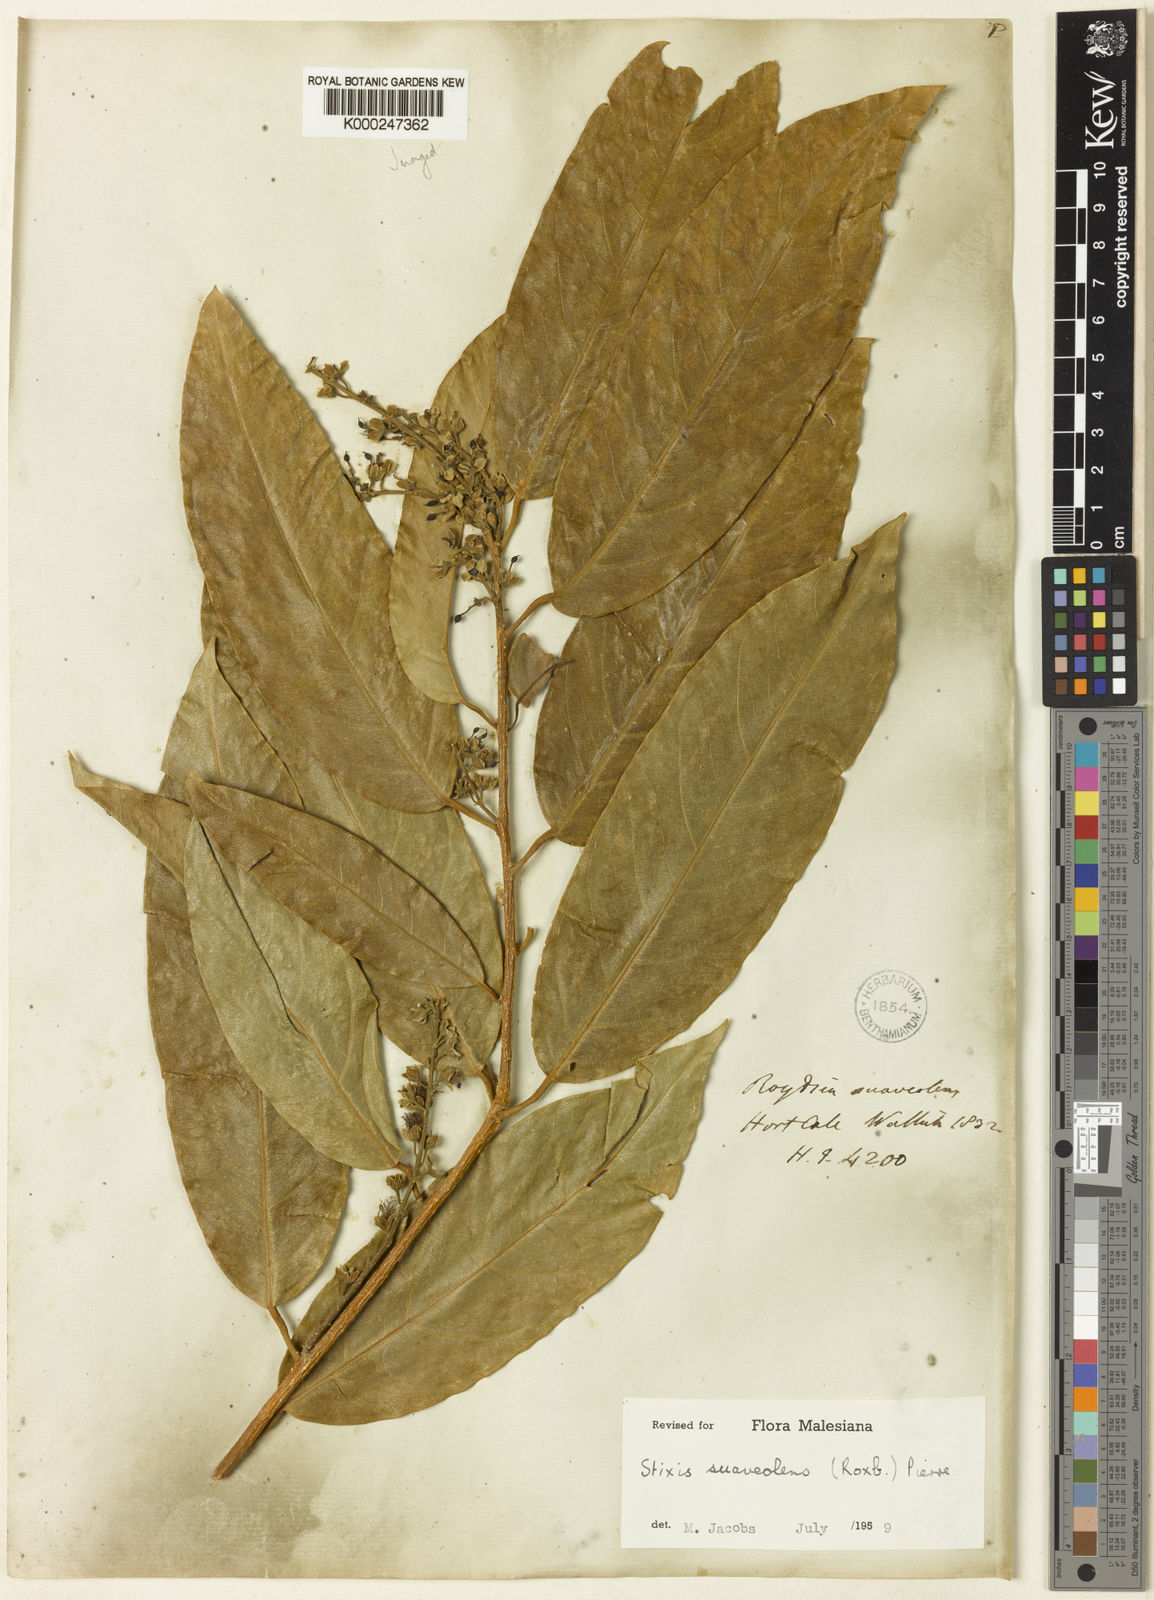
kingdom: Plantae
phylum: Tracheophyta
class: Magnoliopsida
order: Brassicales
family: Stixaceae
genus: Stixis
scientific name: Stixis
